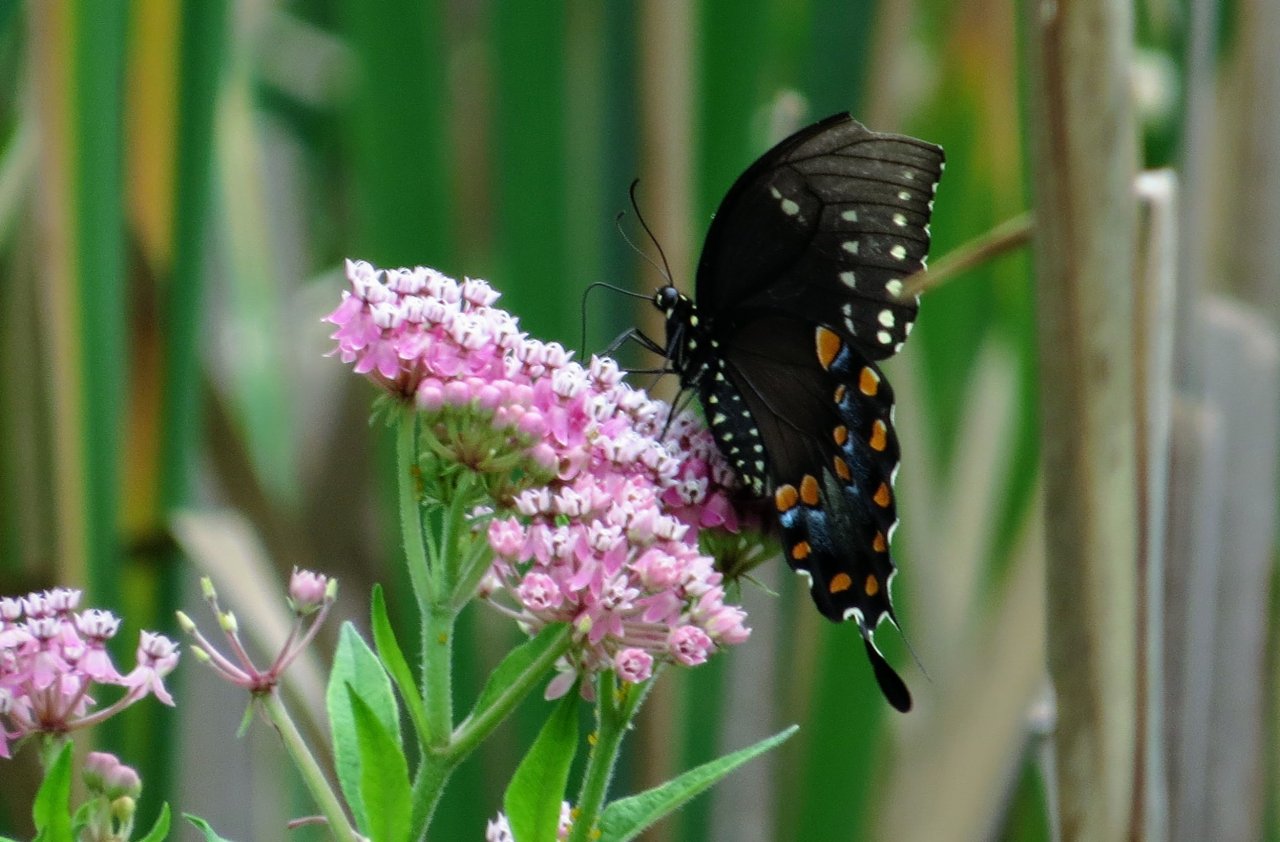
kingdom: Animalia
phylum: Arthropoda
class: Insecta
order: Lepidoptera
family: Papilionidae
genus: Pterourus
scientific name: Pterourus troilus
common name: Spicebush Swallowtail
